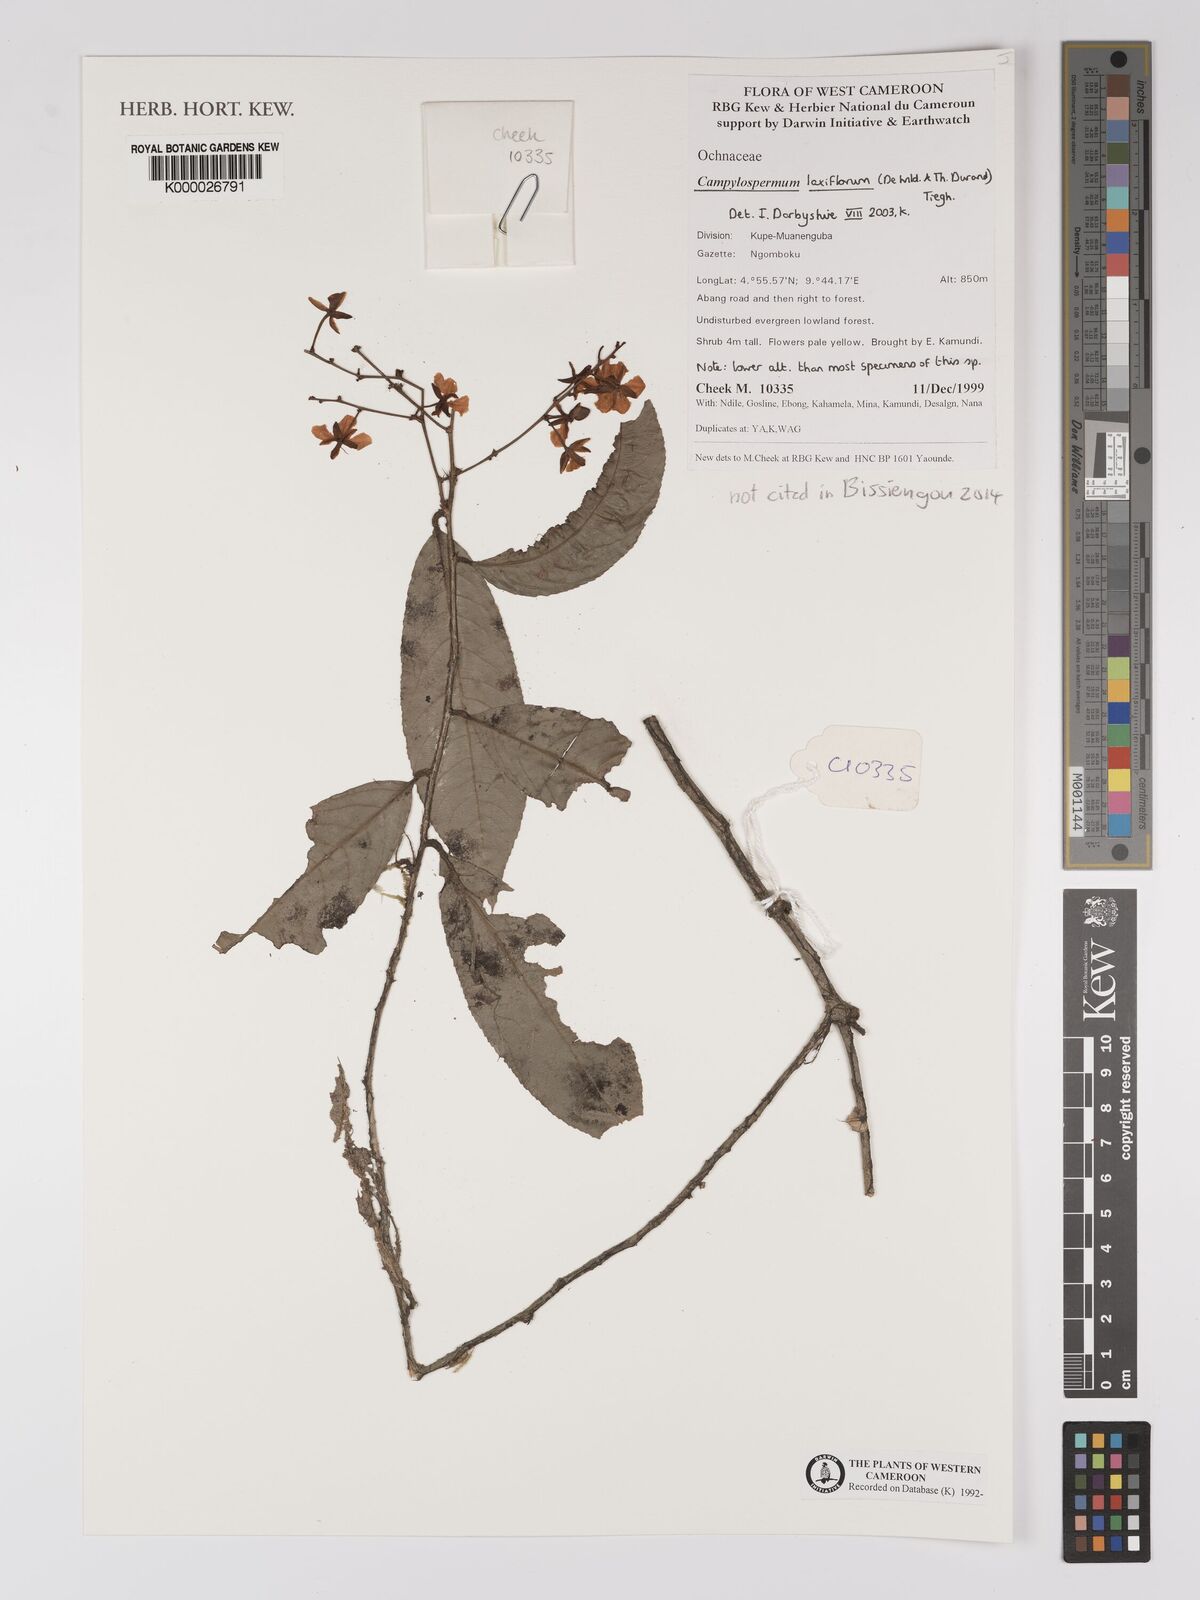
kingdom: Plantae
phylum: Tracheophyta
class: Magnoliopsida
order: Apiales
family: Pittosporaceae
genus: Marianthus
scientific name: Marianthus coeruleopunctatus
